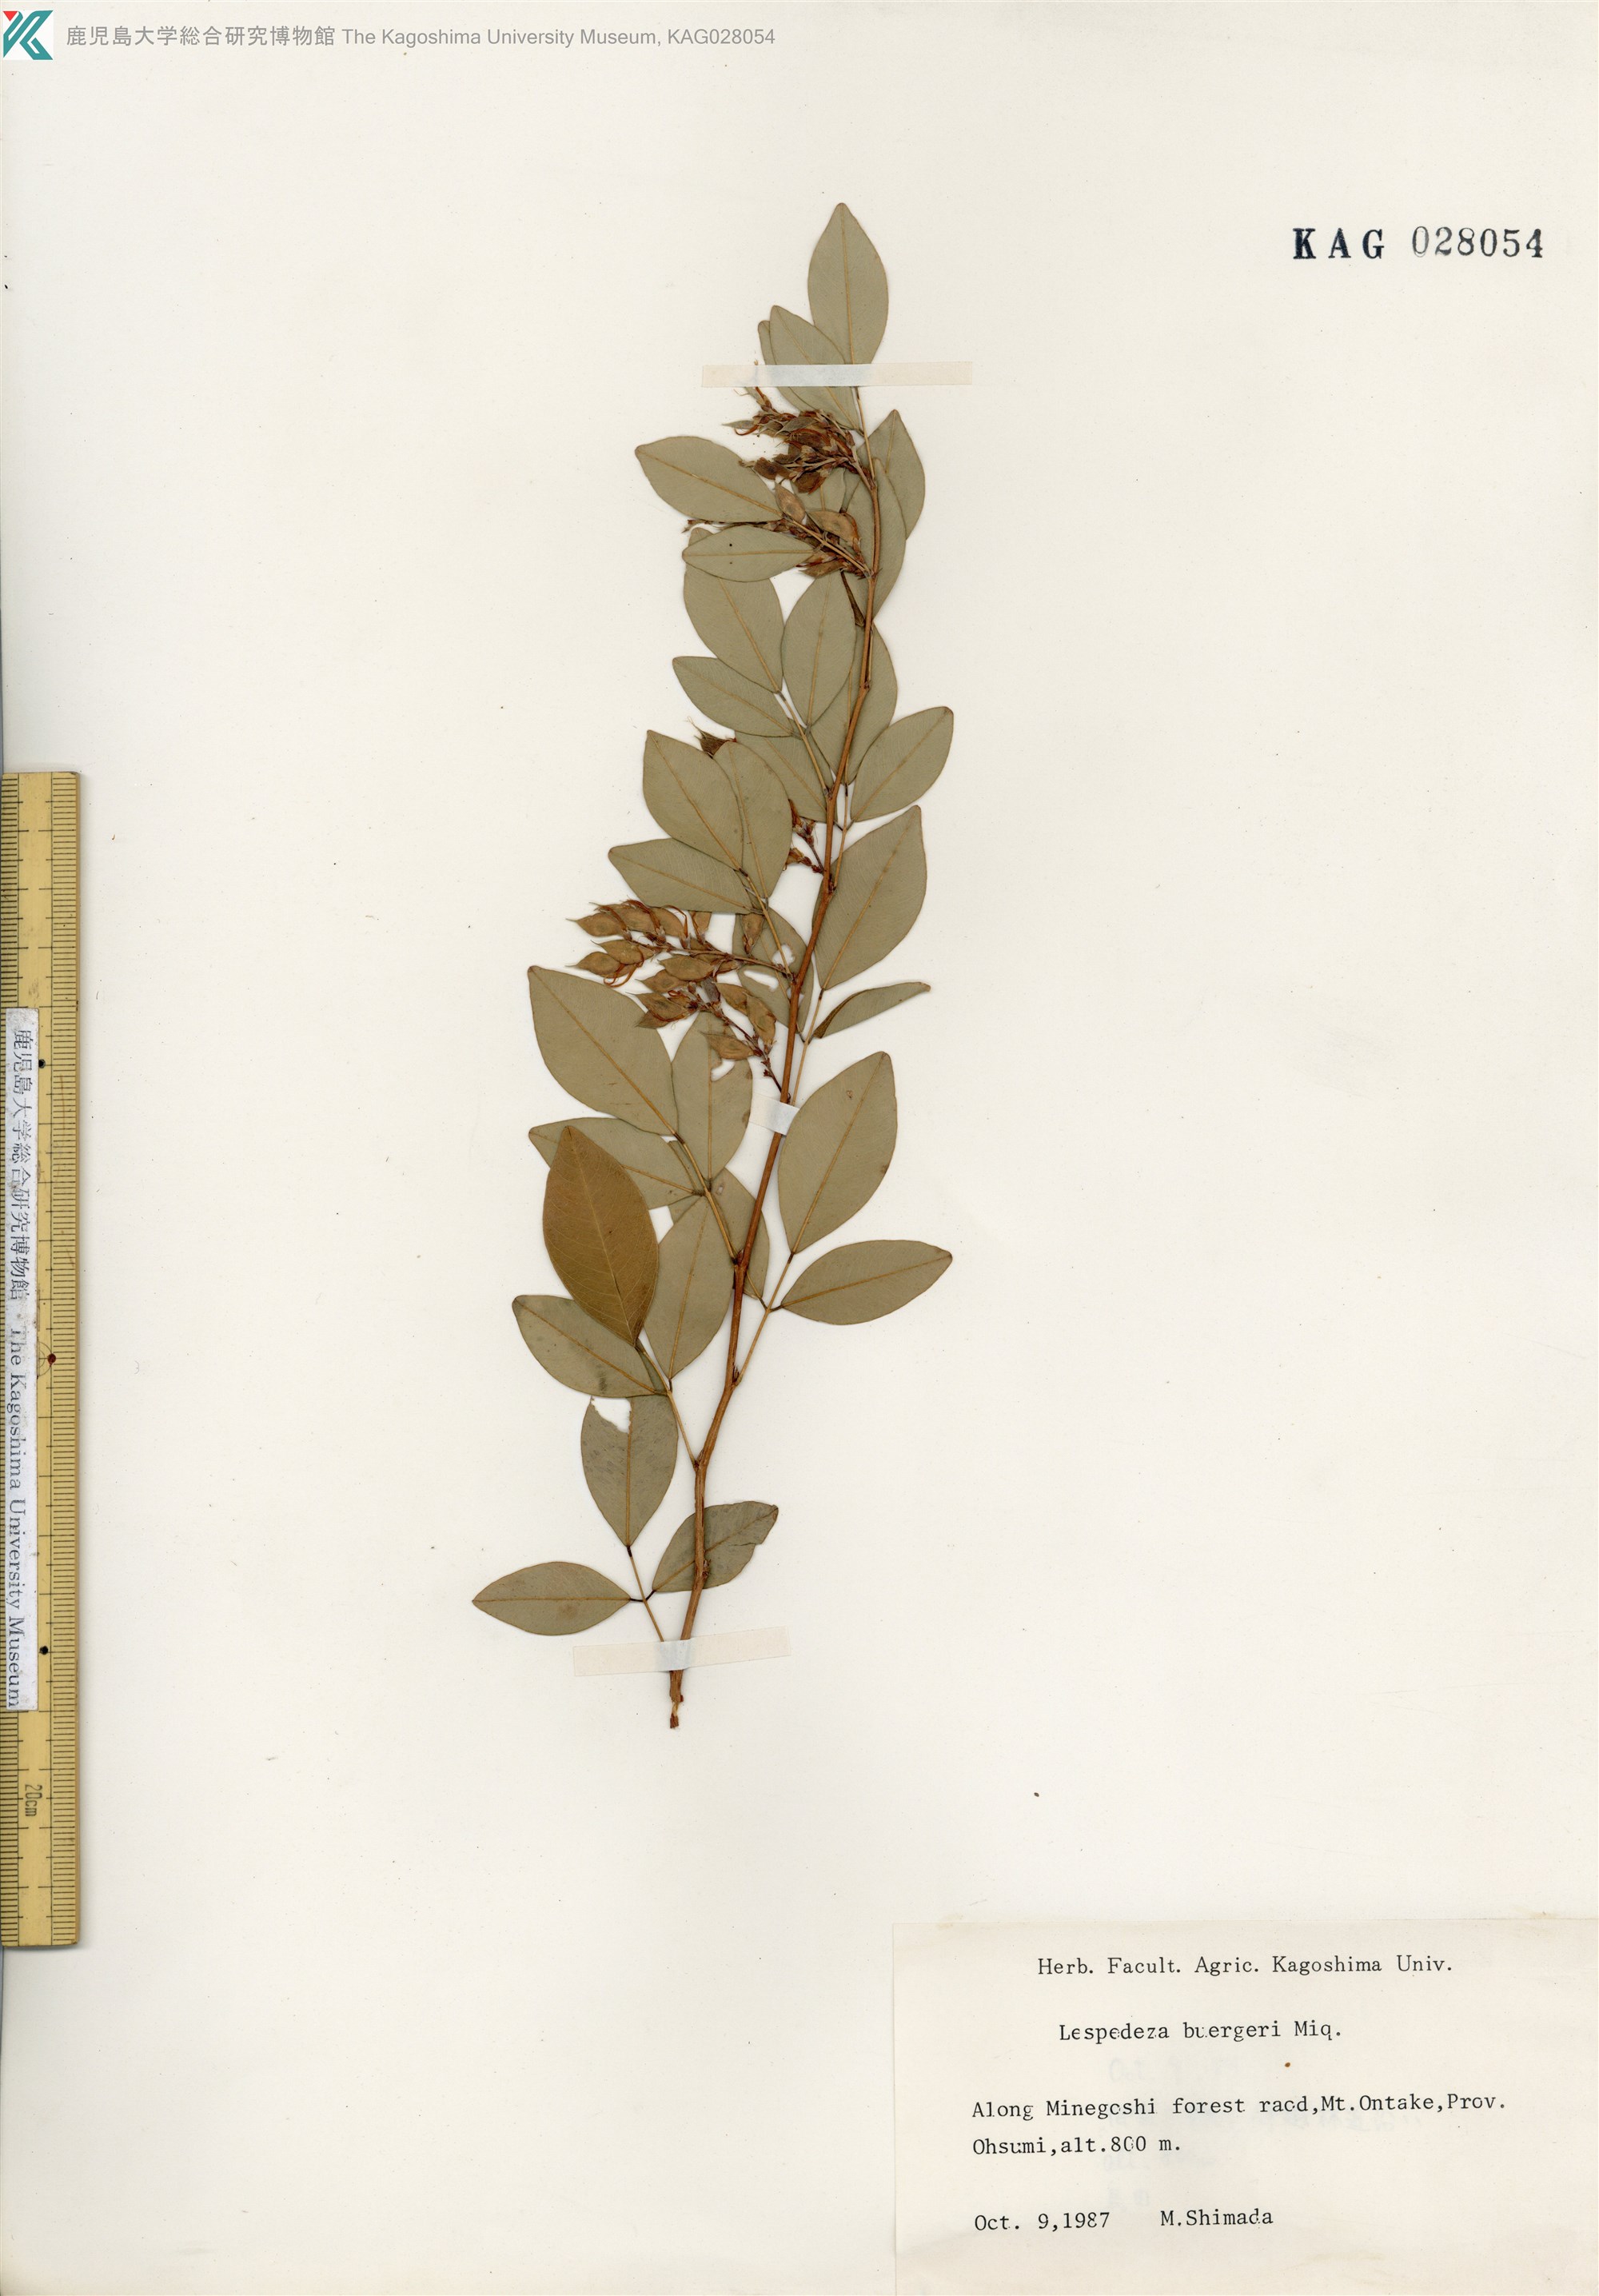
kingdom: Plantae
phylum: Tracheophyta
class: Magnoliopsida
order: Fabales
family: Fabaceae
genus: Lespedeza
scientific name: Lespedeza buergeri
